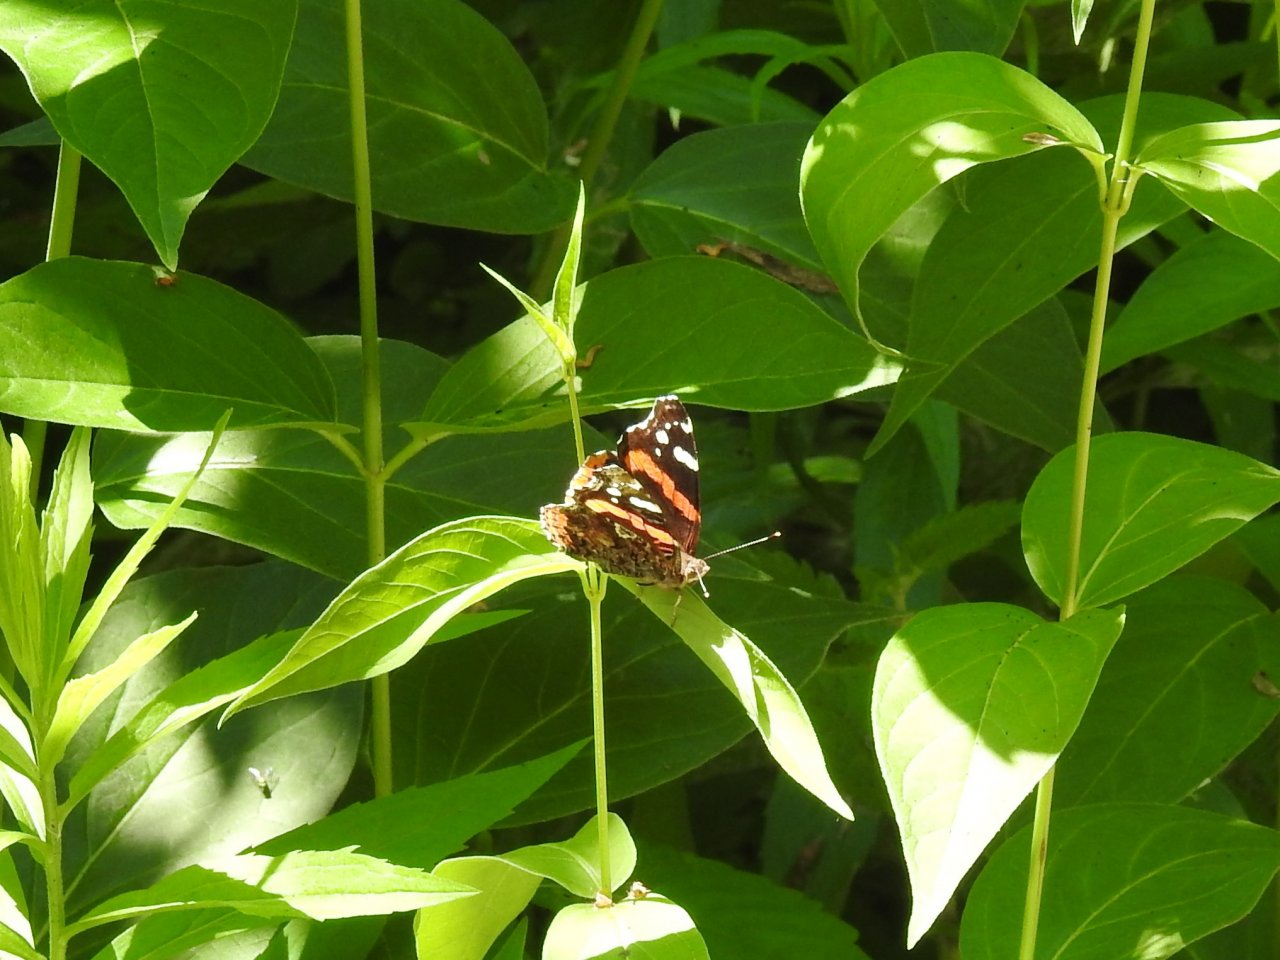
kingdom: Animalia
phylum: Arthropoda
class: Insecta
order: Lepidoptera
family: Nymphalidae
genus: Vanessa
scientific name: Vanessa atalanta
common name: Red Admiral
